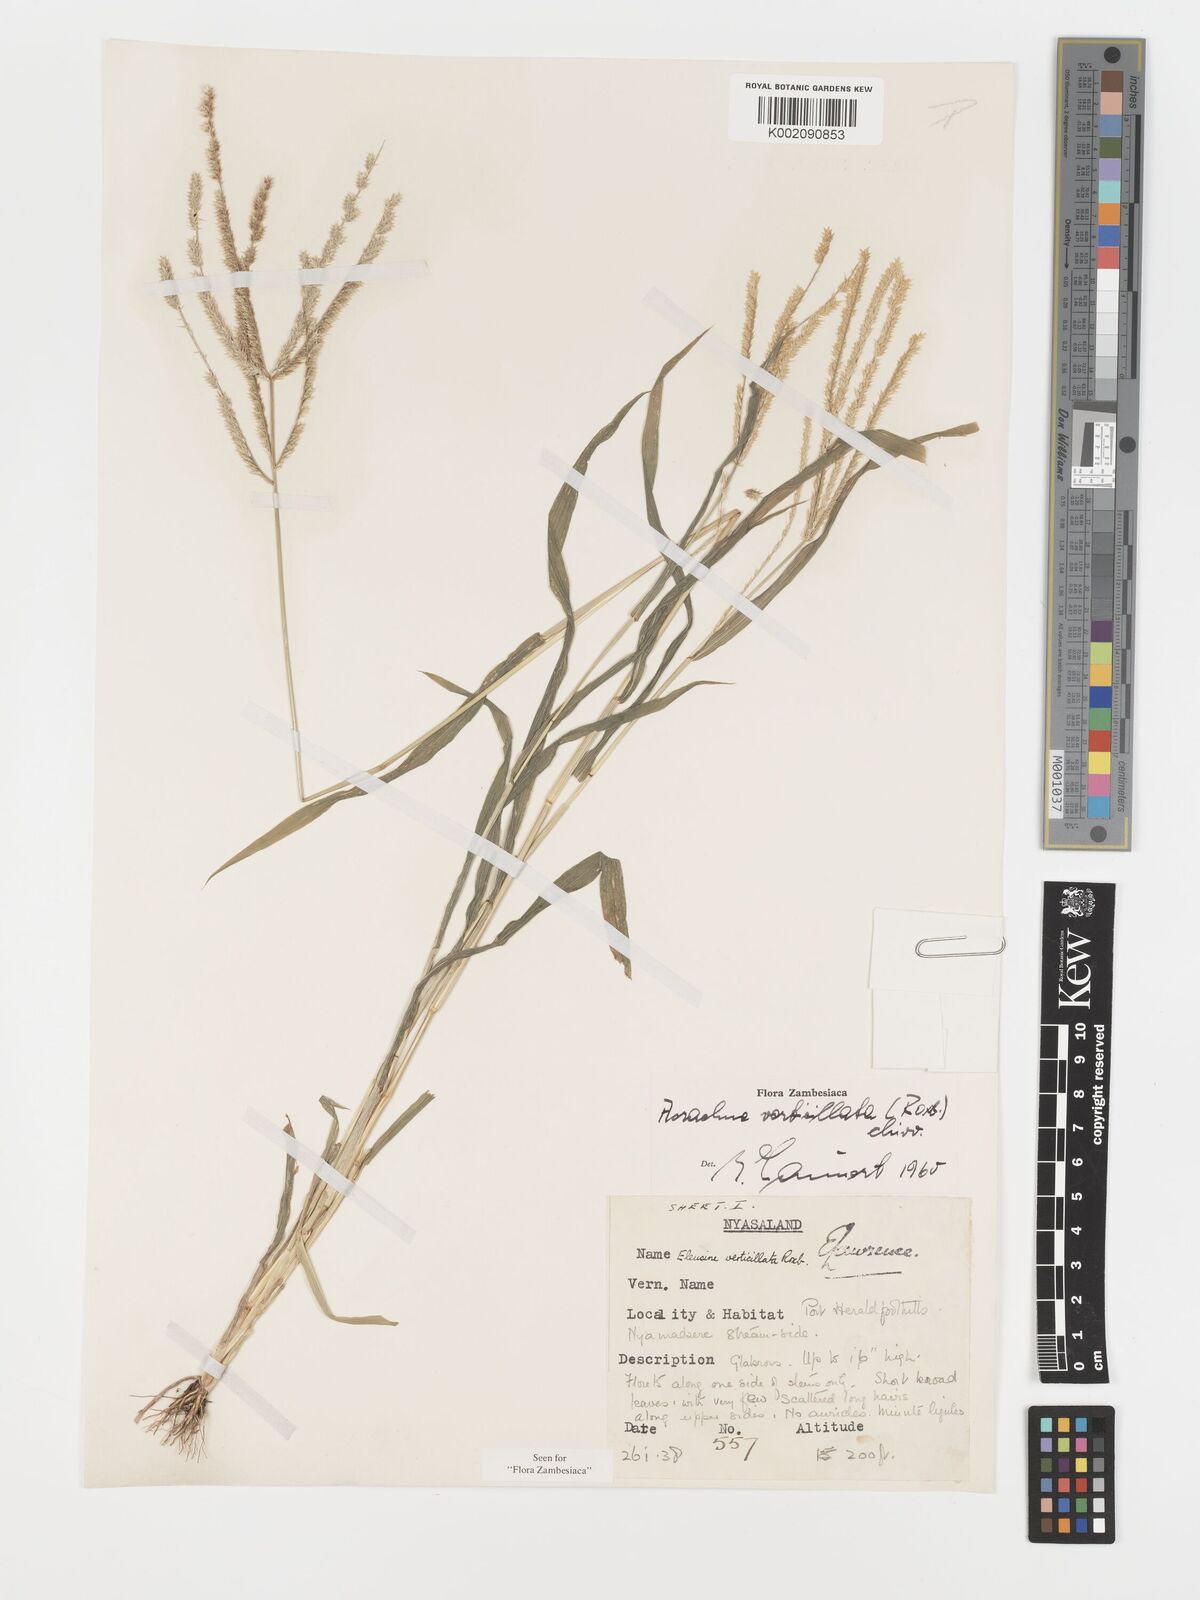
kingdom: Plantae
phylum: Tracheophyta
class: Liliopsida
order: Poales
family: Poaceae
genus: Acrachne
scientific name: Acrachne racemosa
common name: Goosegrass
